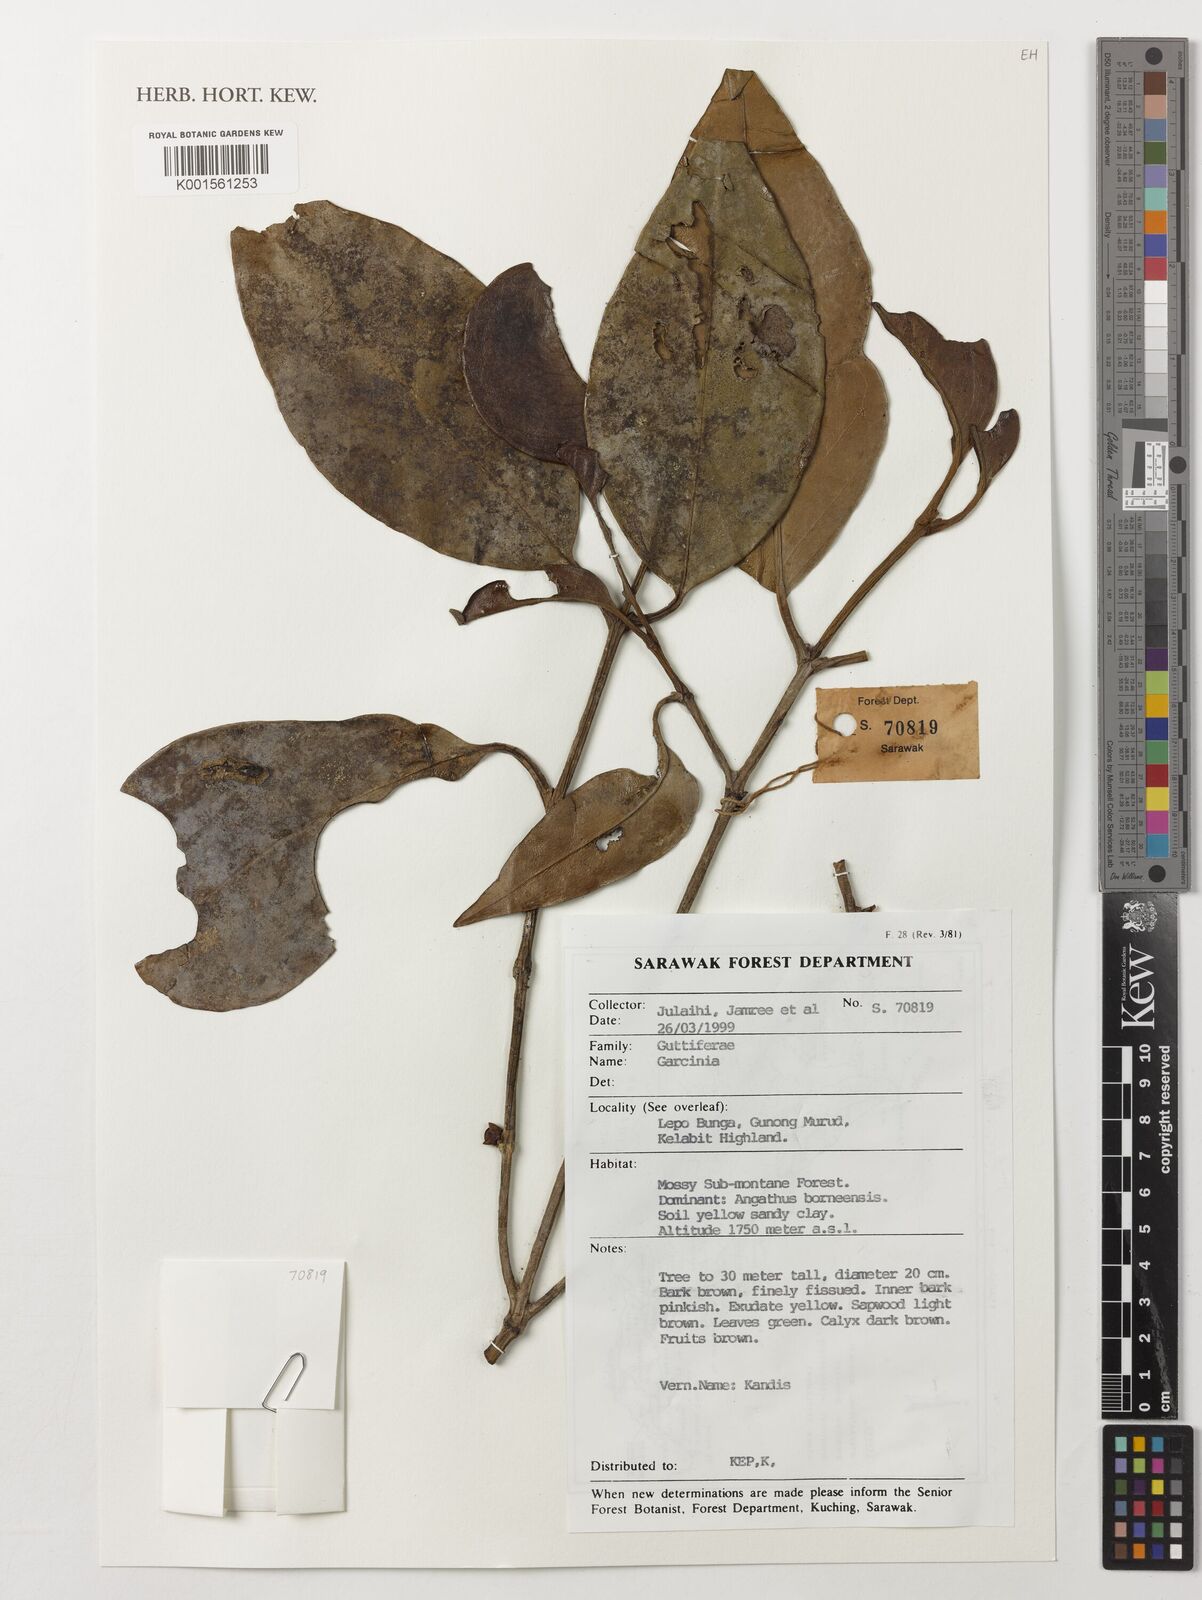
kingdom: Plantae
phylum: Tracheophyta
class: Magnoliopsida
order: Malpighiales
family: Clusiaceae
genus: Garcinia
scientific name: Garcinia
